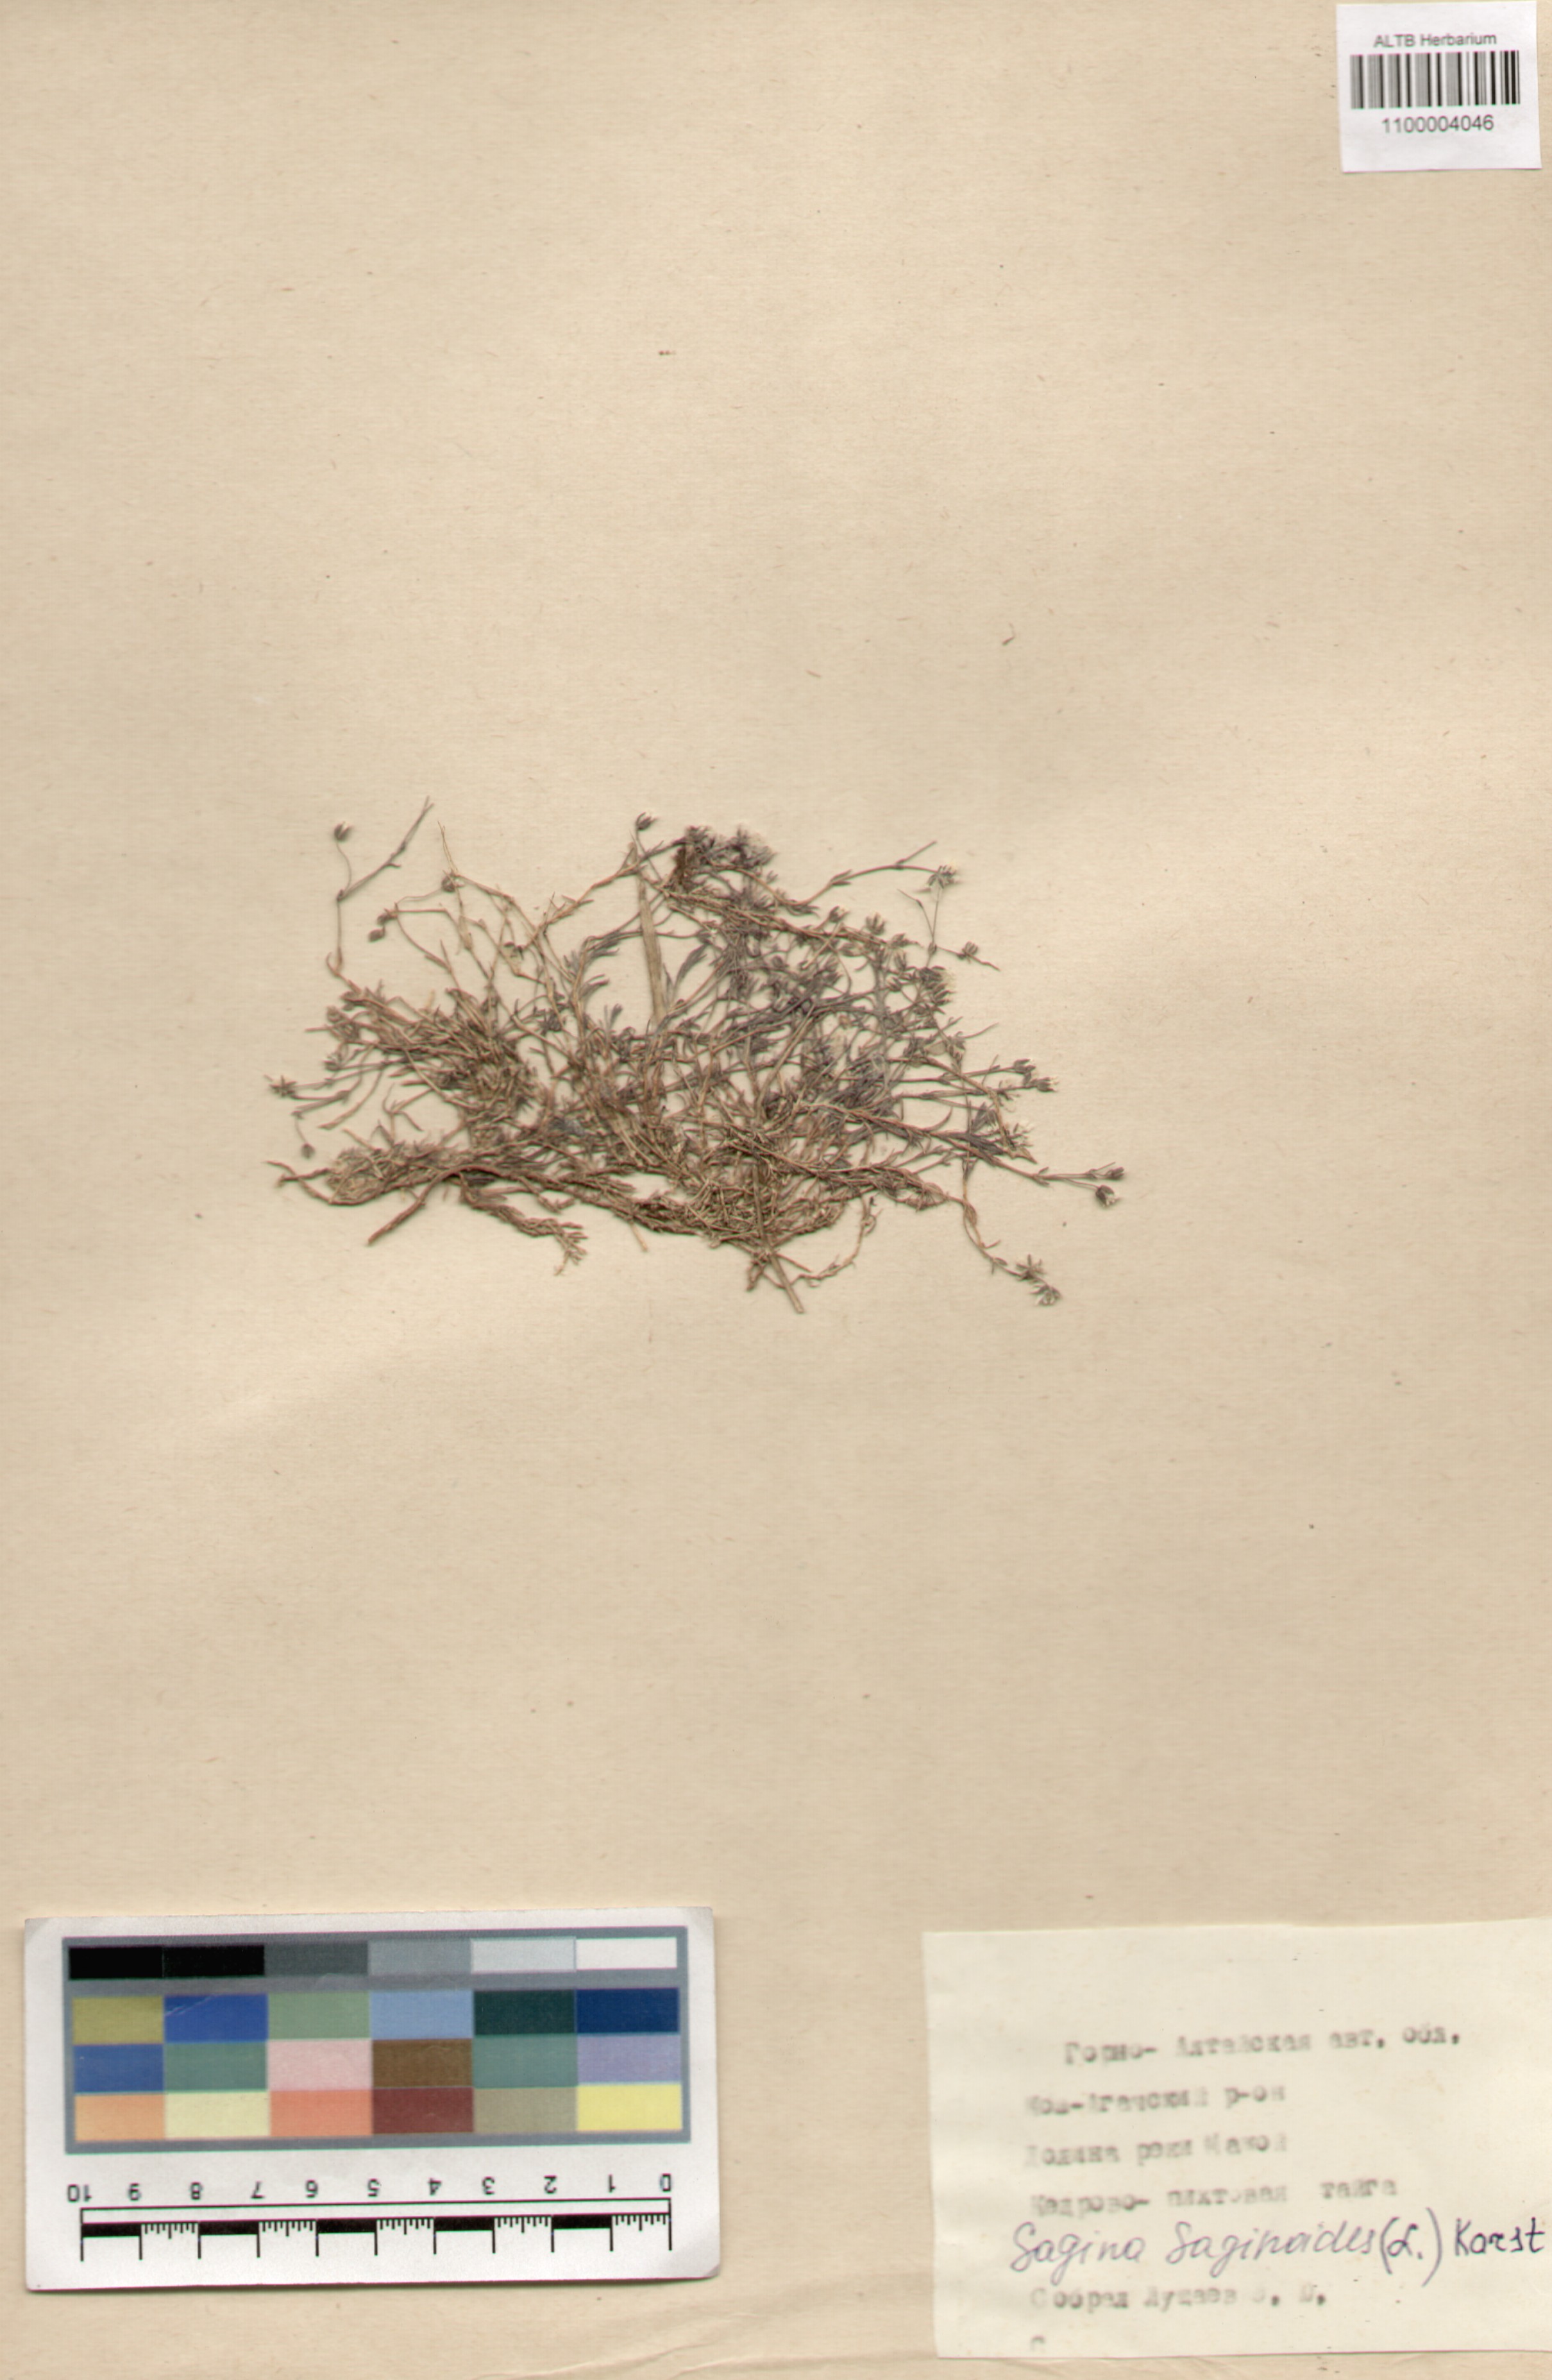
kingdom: Plantae
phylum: Tracheophyta
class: Magnoliopsida
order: Caryophyllales
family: Caryophyllaceae
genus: Sagina
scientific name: Sagina saginoides
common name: Alpine pearlwort
